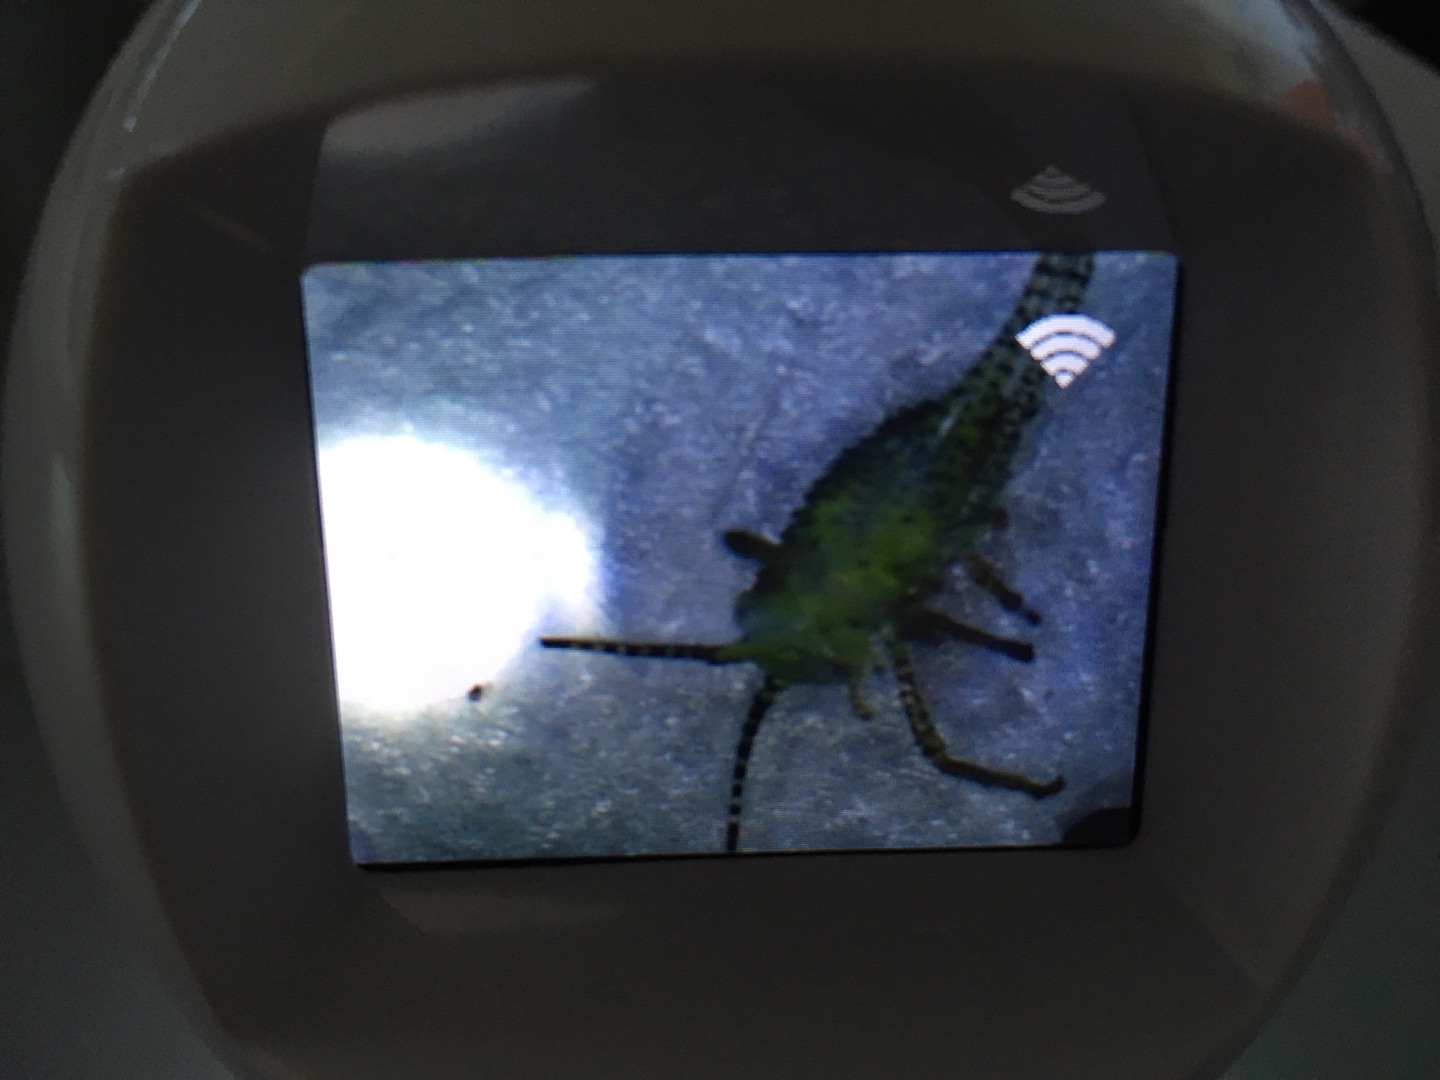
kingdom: Animalia
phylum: Arthropoda
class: Insecta
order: Orthoptera
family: Tettigoniidae
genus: Leptophyes
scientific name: Leptophyes punctatissima
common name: Krumknivgræshoppe
